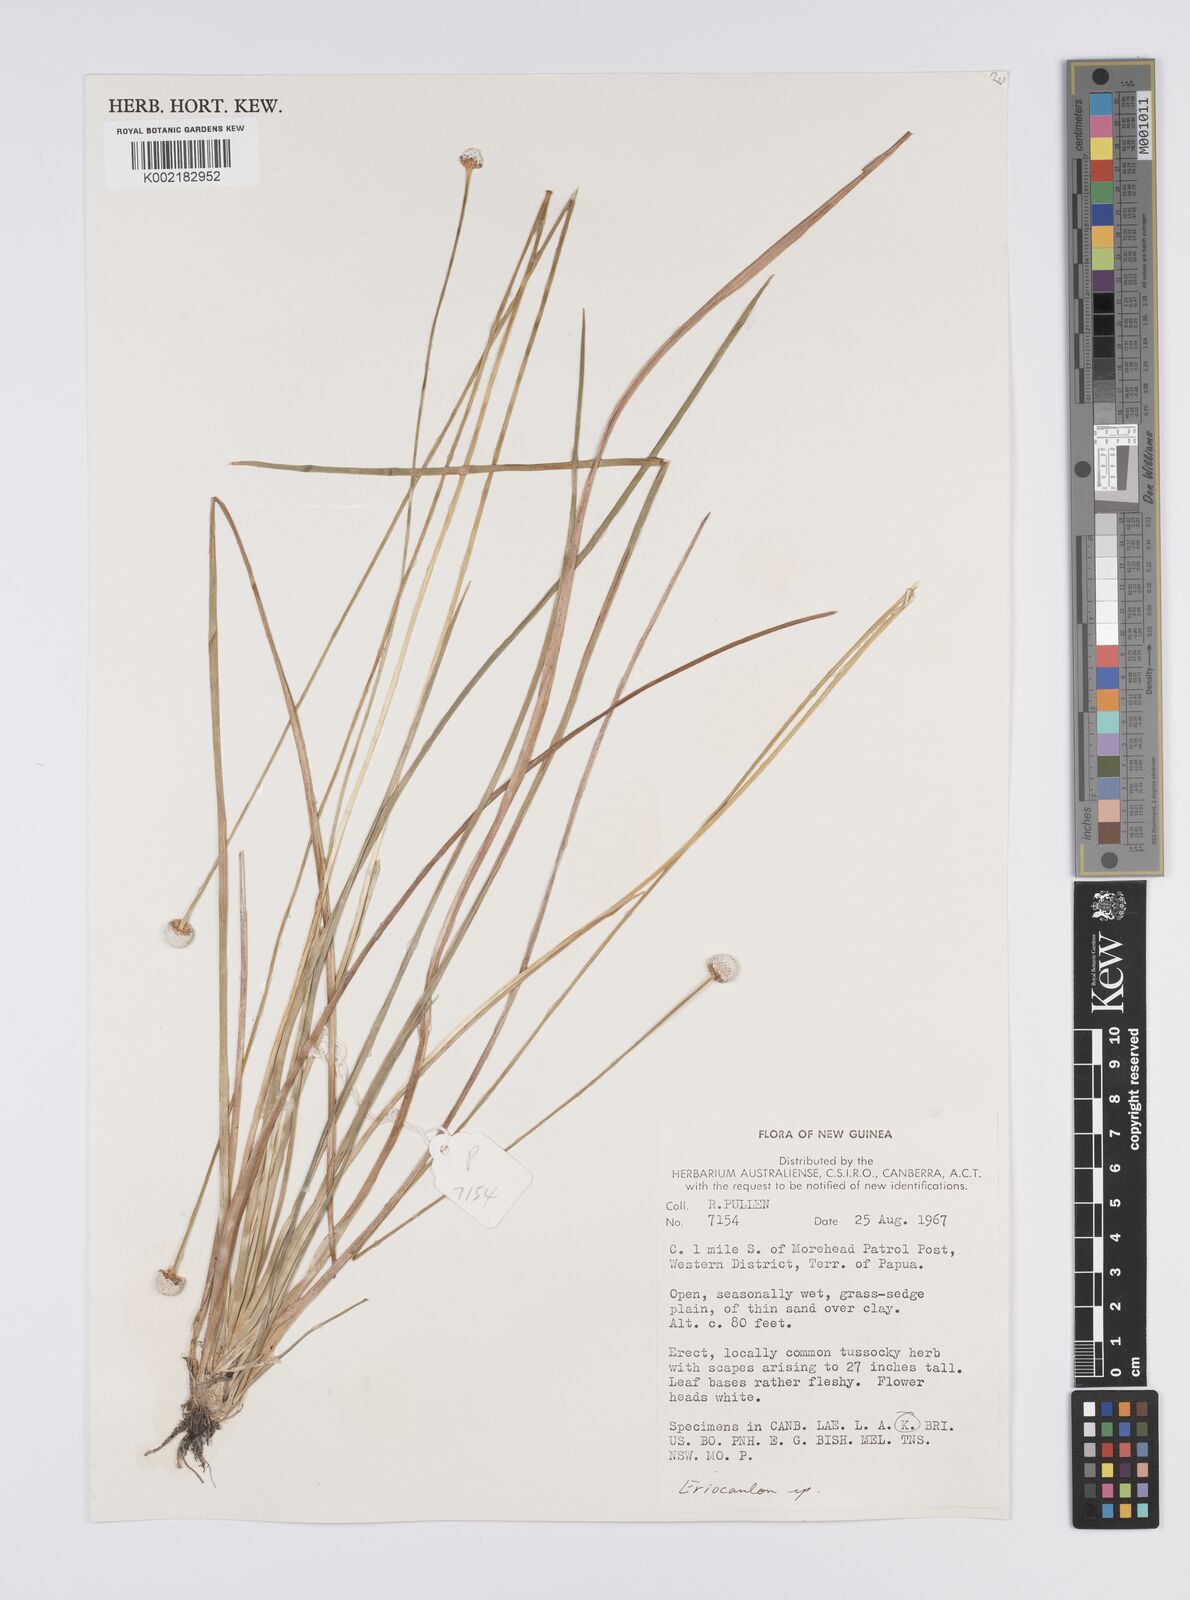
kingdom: Plantae
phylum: Tracheophyta
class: Liliopsida
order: Poales
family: Eriocaulaceae
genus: Eriocaulon
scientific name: Eriocaulon australe
